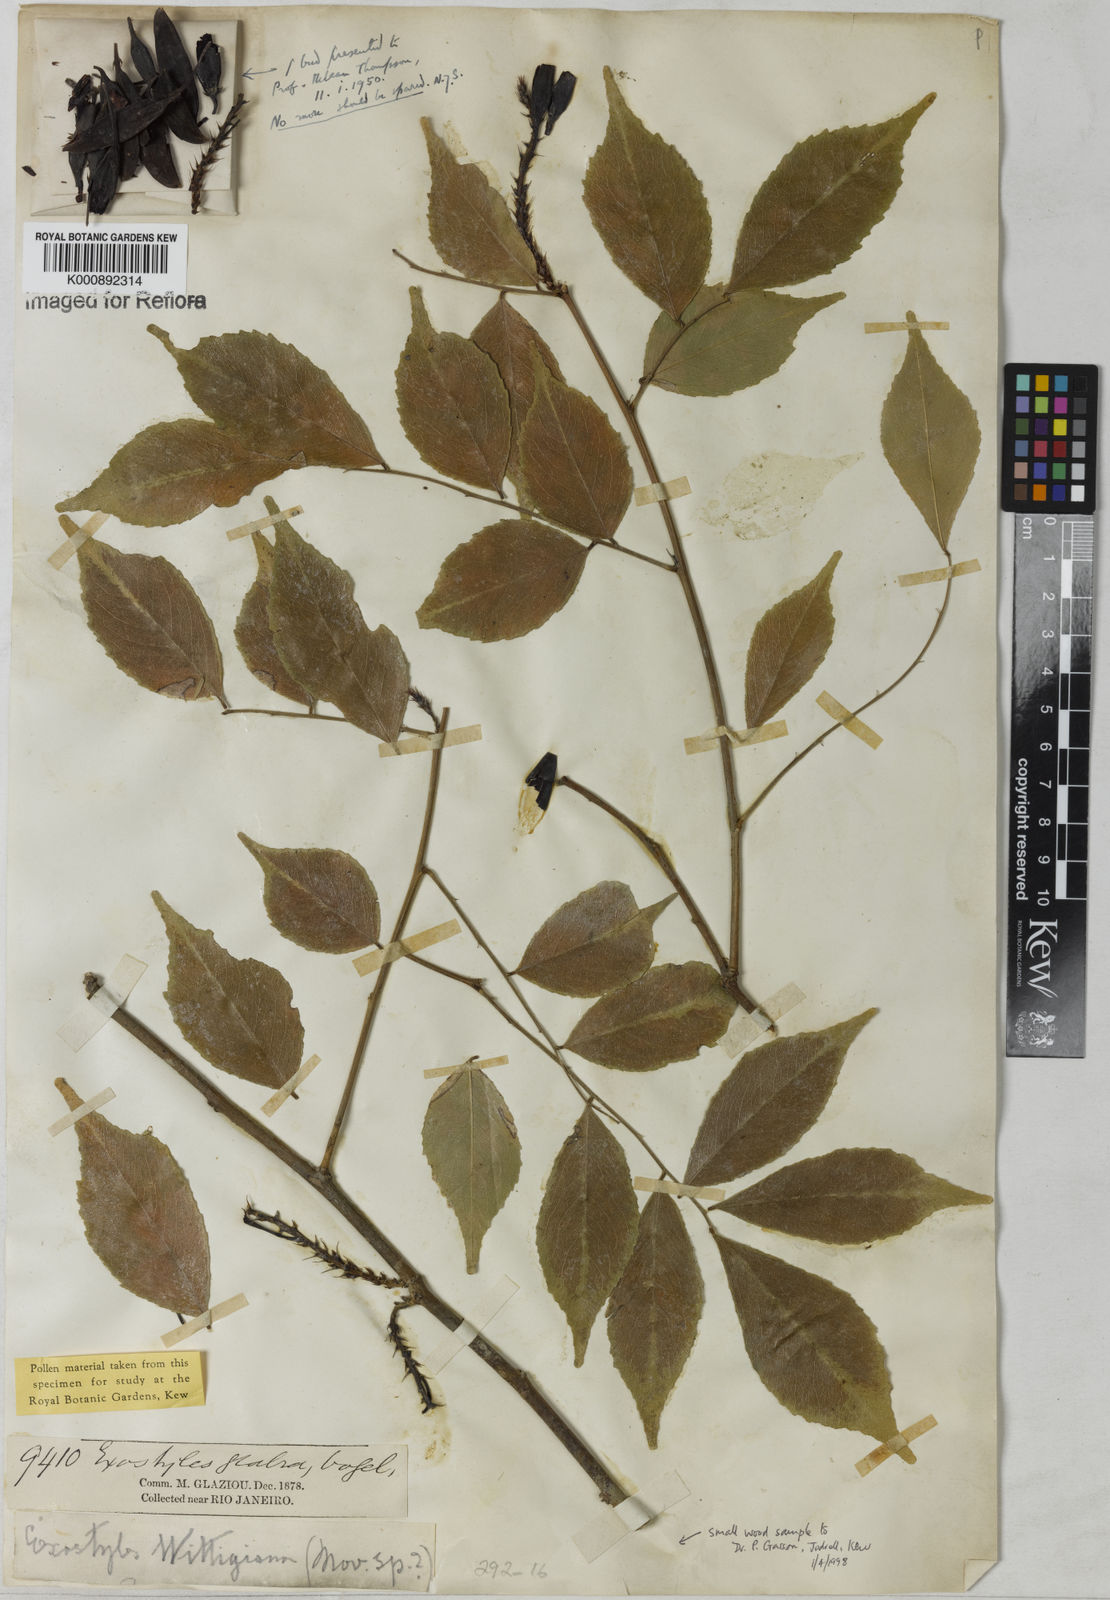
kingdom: Plantae
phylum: Tracheophyta
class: Magnoliopsida
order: Fabales
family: Fabaceae
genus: Exostyles
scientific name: Exostyles glabra
